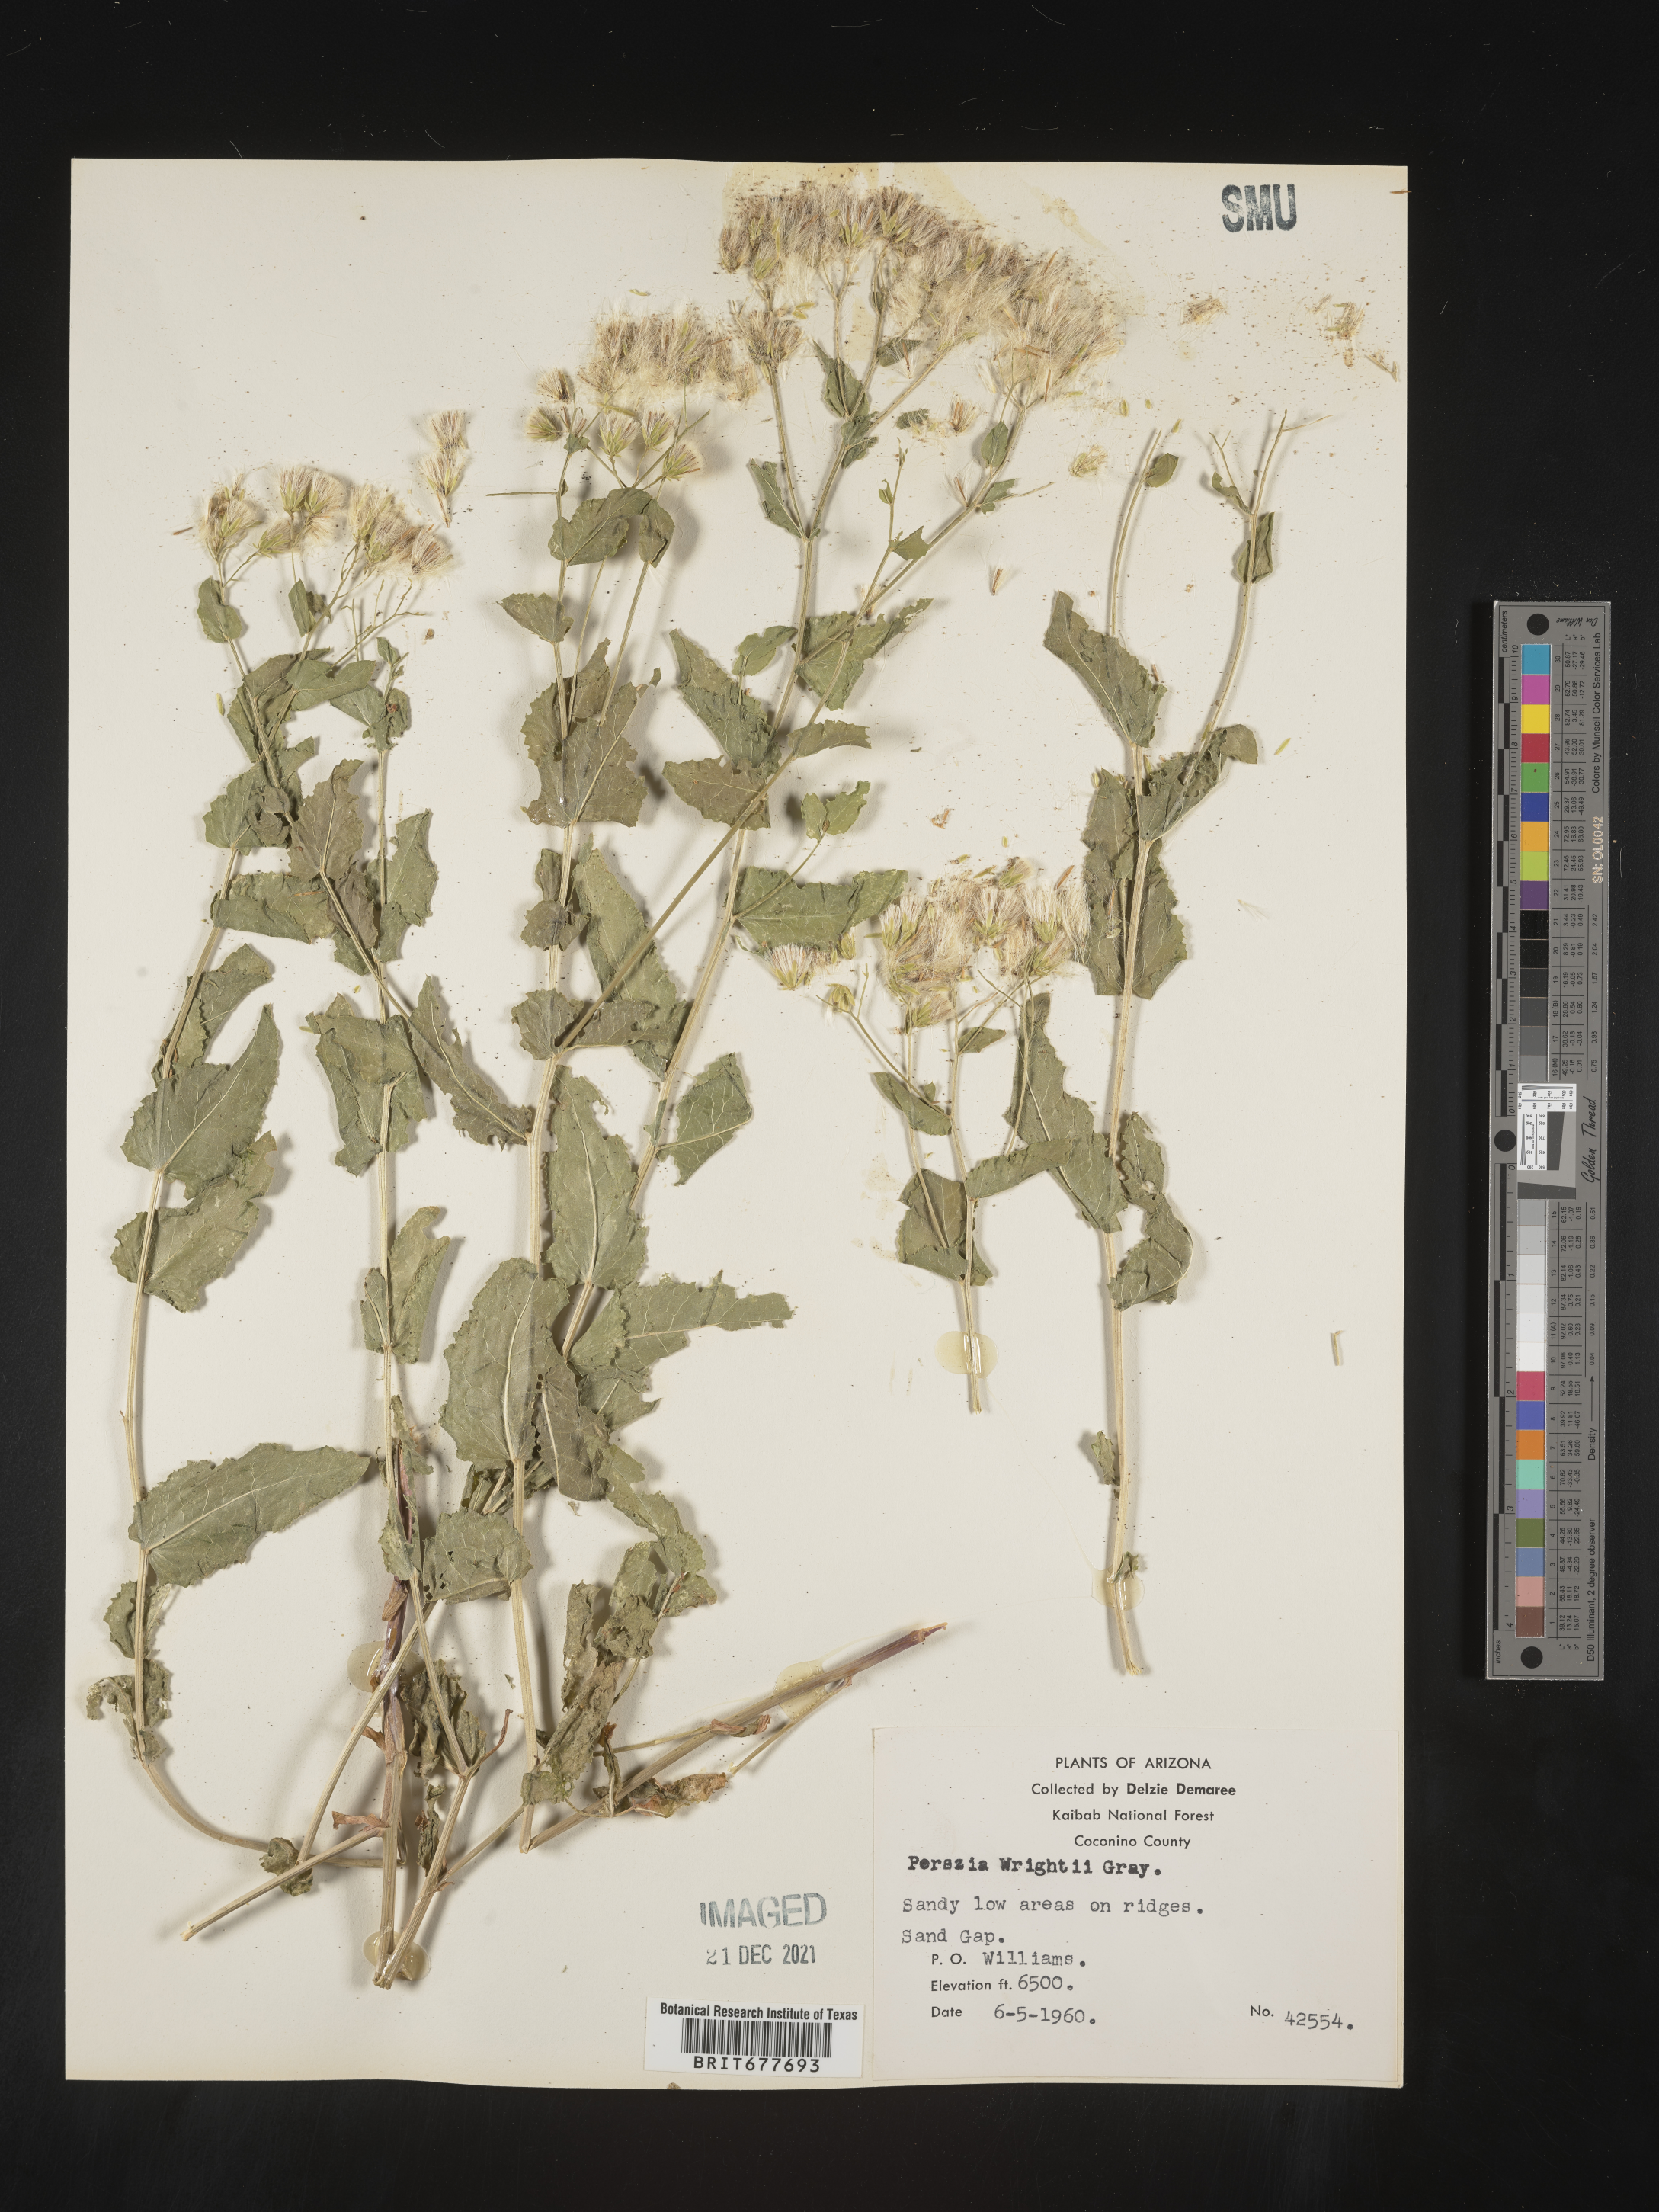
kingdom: Plantae
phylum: Tracheophyta
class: Magnoliopsida
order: Asterales
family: Asteraceae
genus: Perezia
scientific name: Perezia
